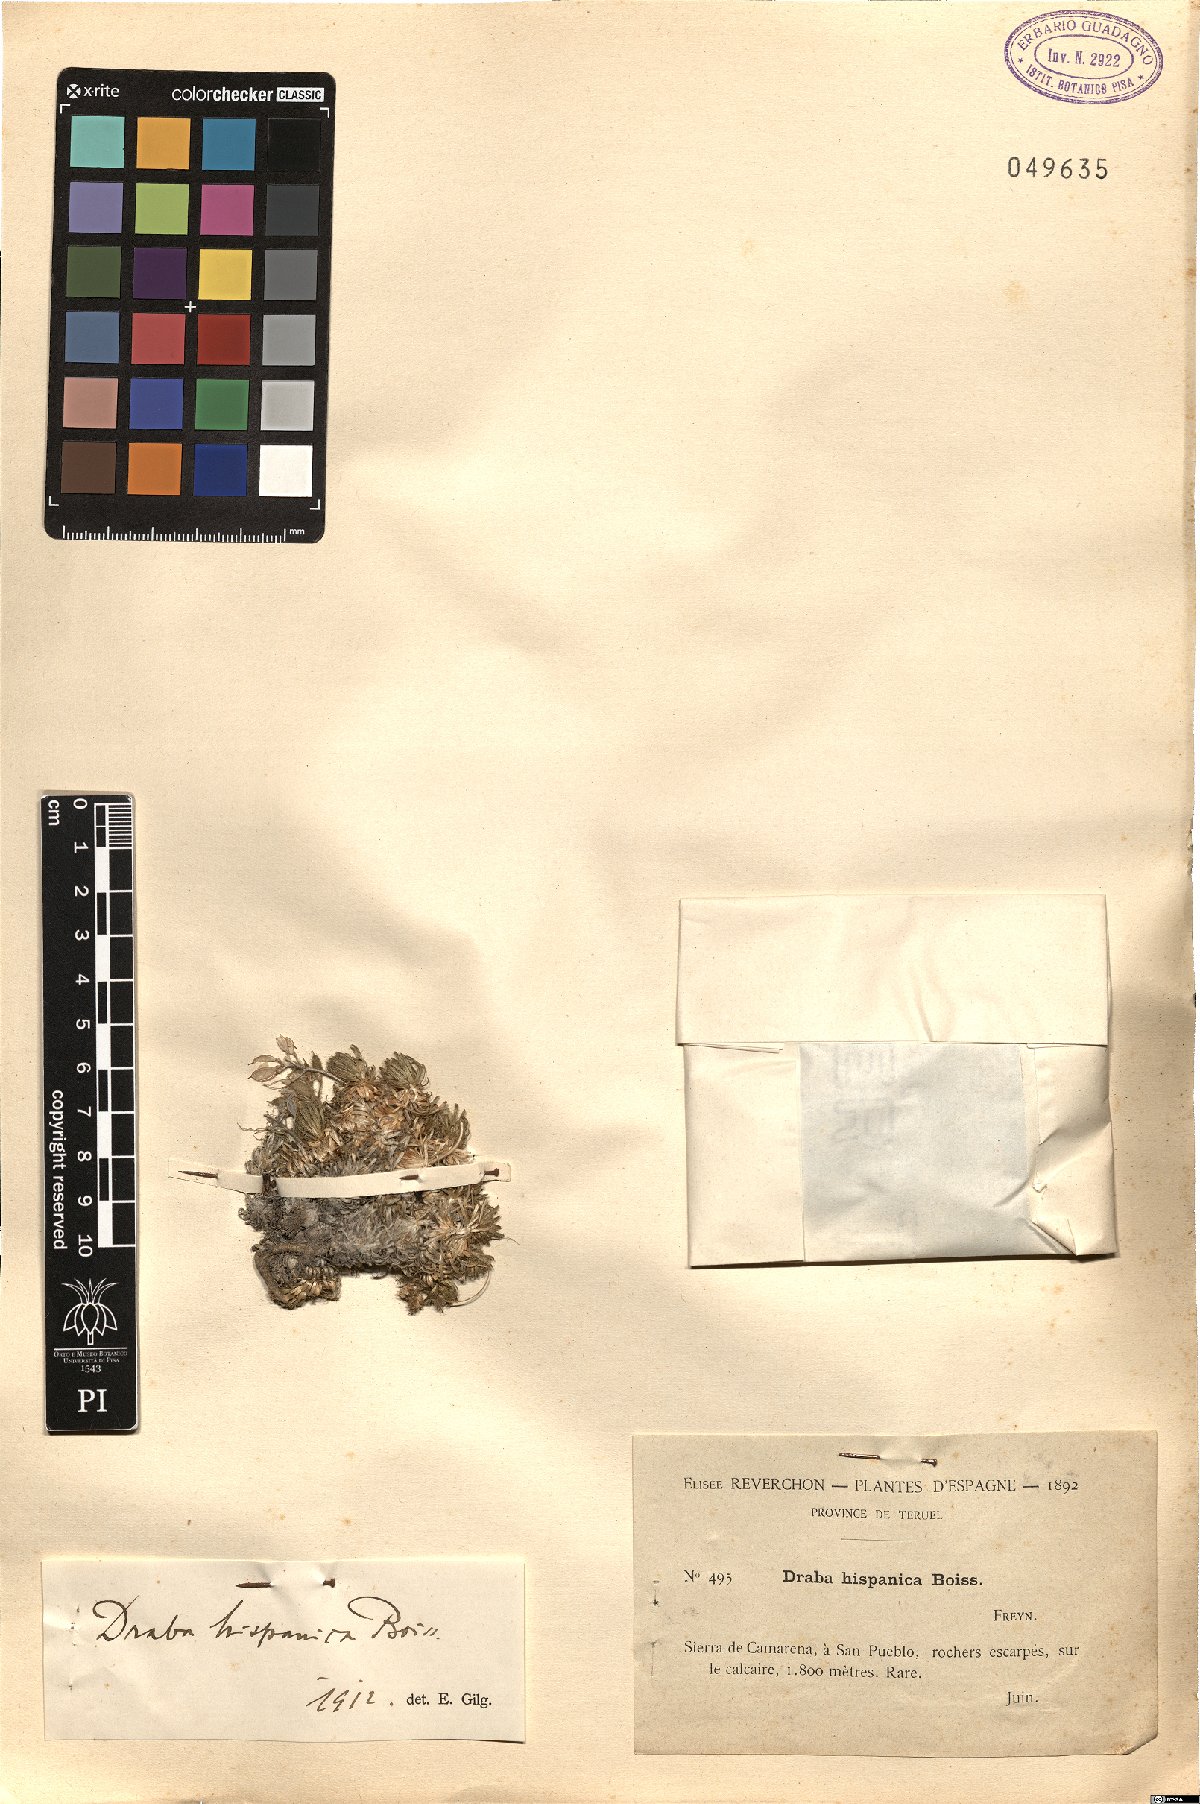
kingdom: Plantae
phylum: Tracheophyta
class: Magnoliopsida
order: Brassicales
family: Brassicaceae
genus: Draba
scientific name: Draba hispanica
